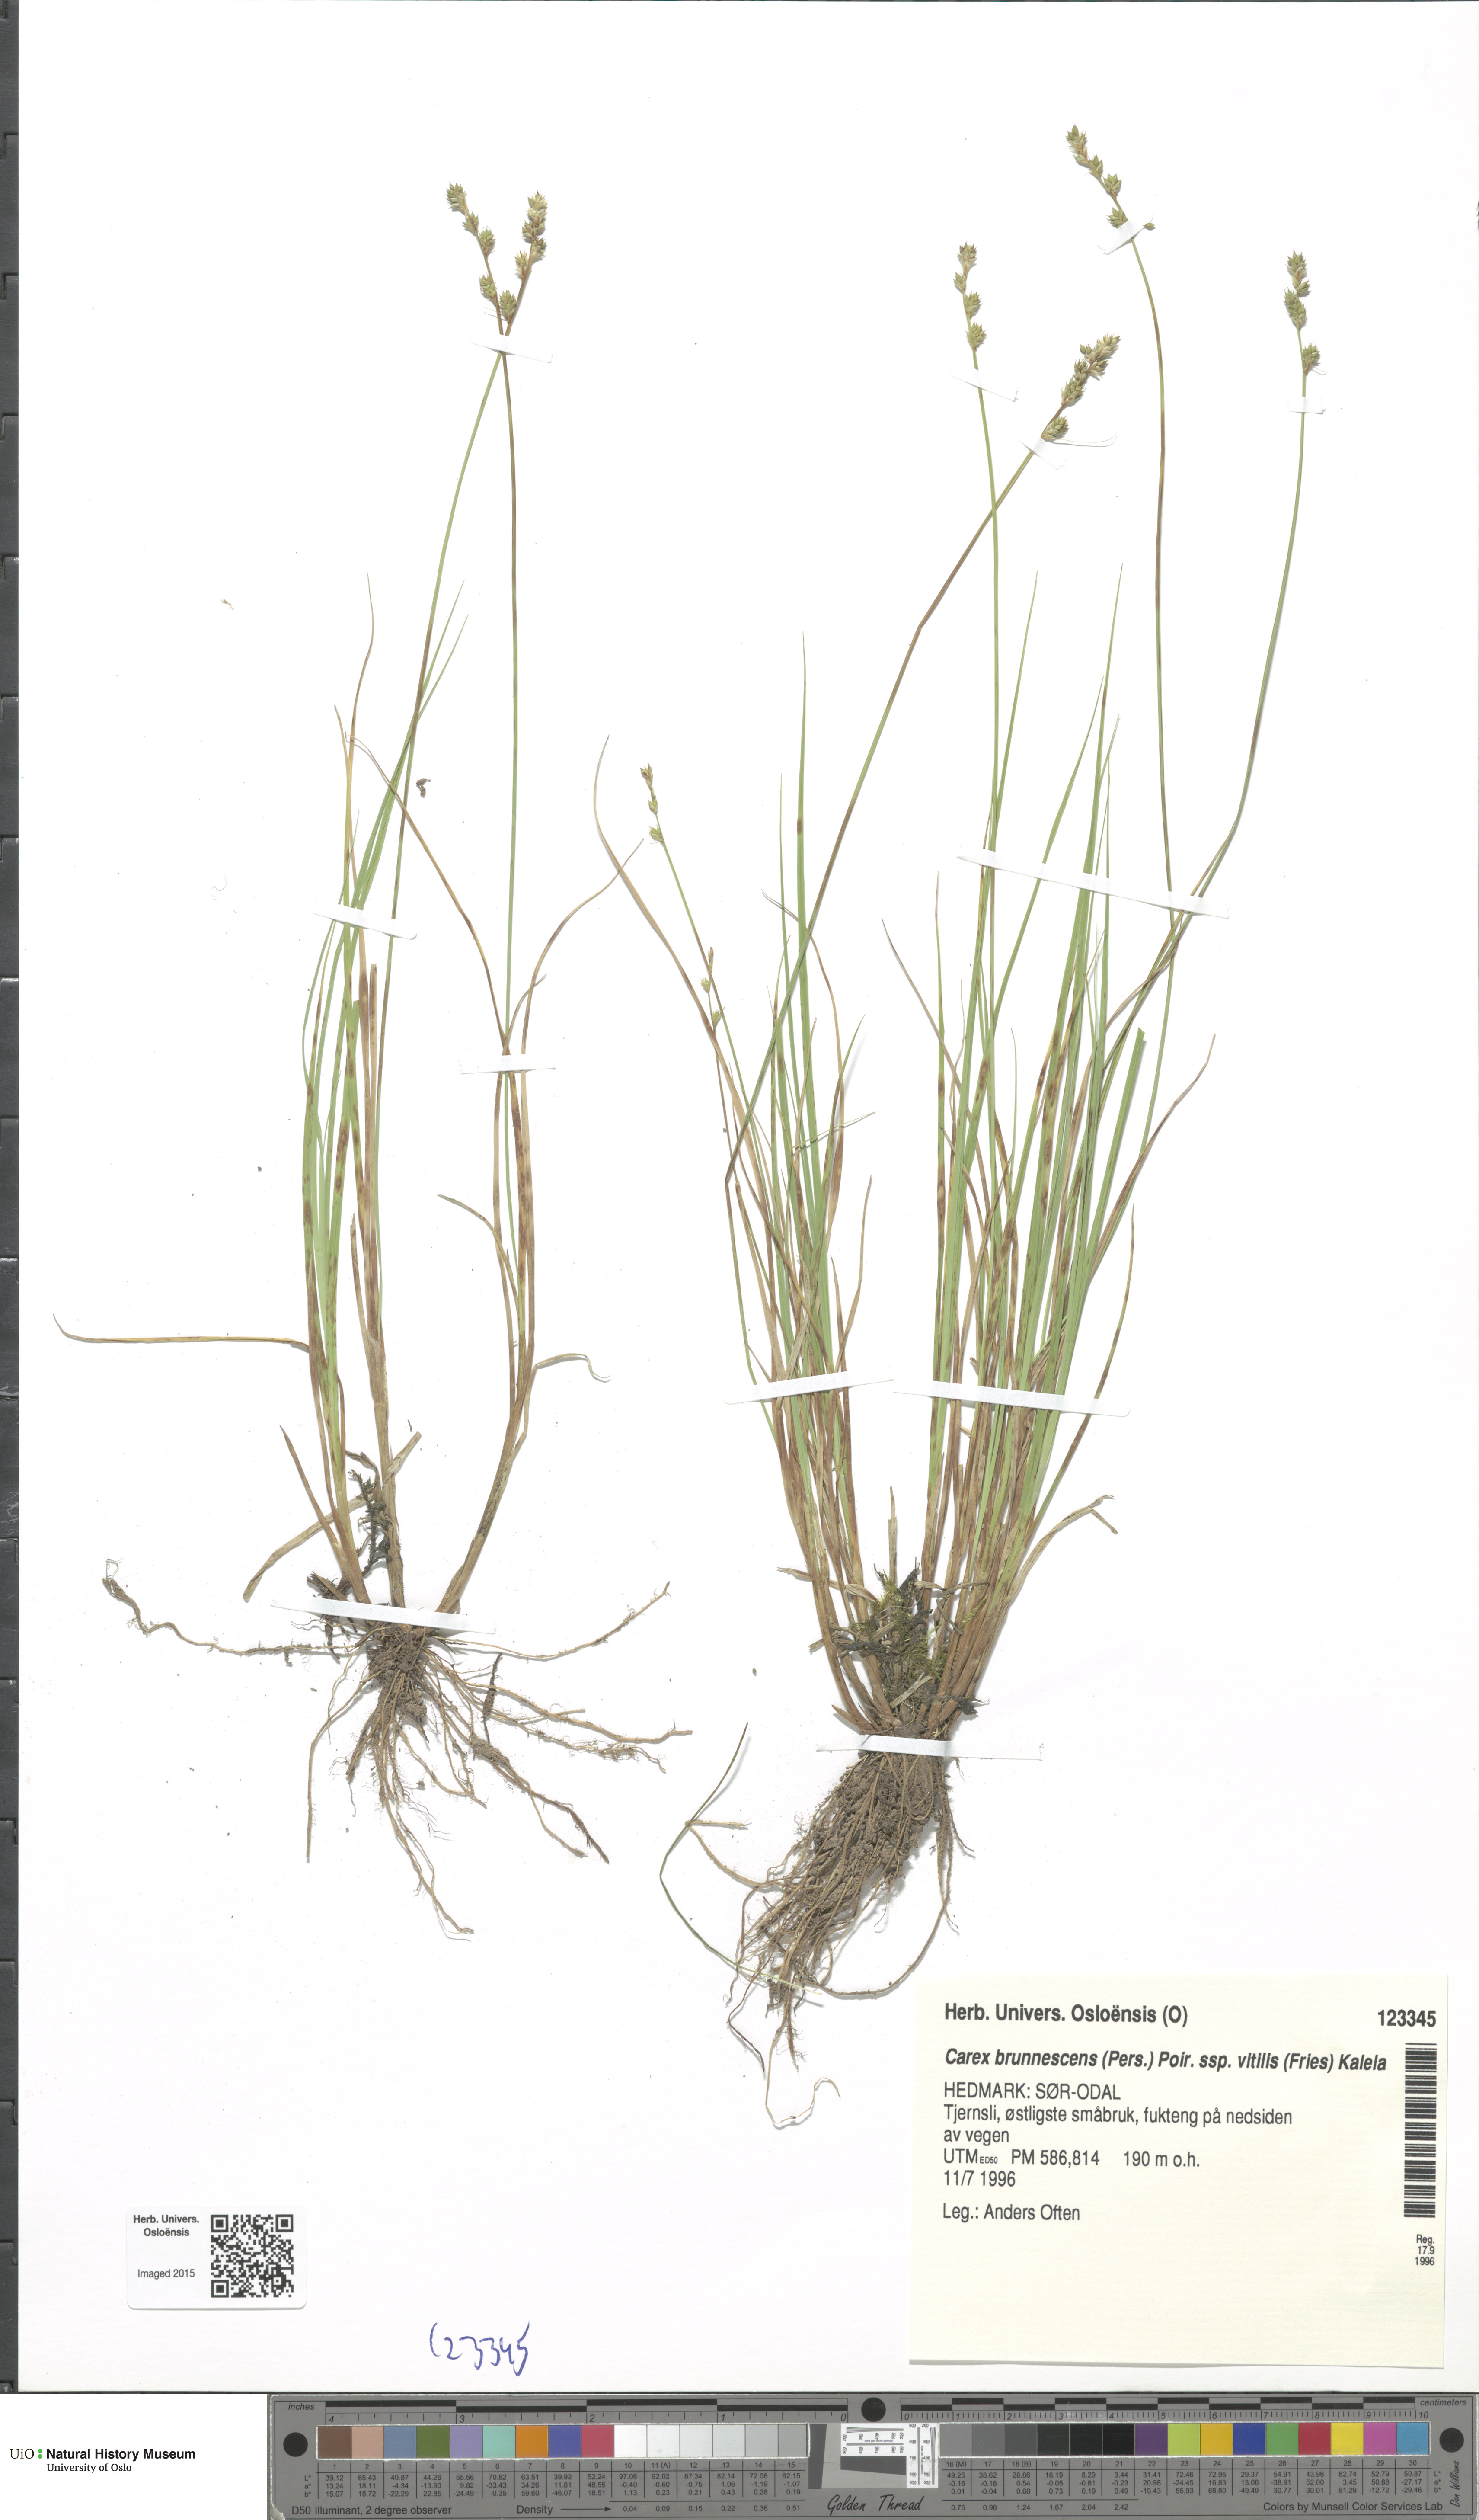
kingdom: Plantae
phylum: Tracheophyta
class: Liliopsida
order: Poales
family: Cyperaceae
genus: Carex
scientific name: Carex brunnescens
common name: Brown sedge
